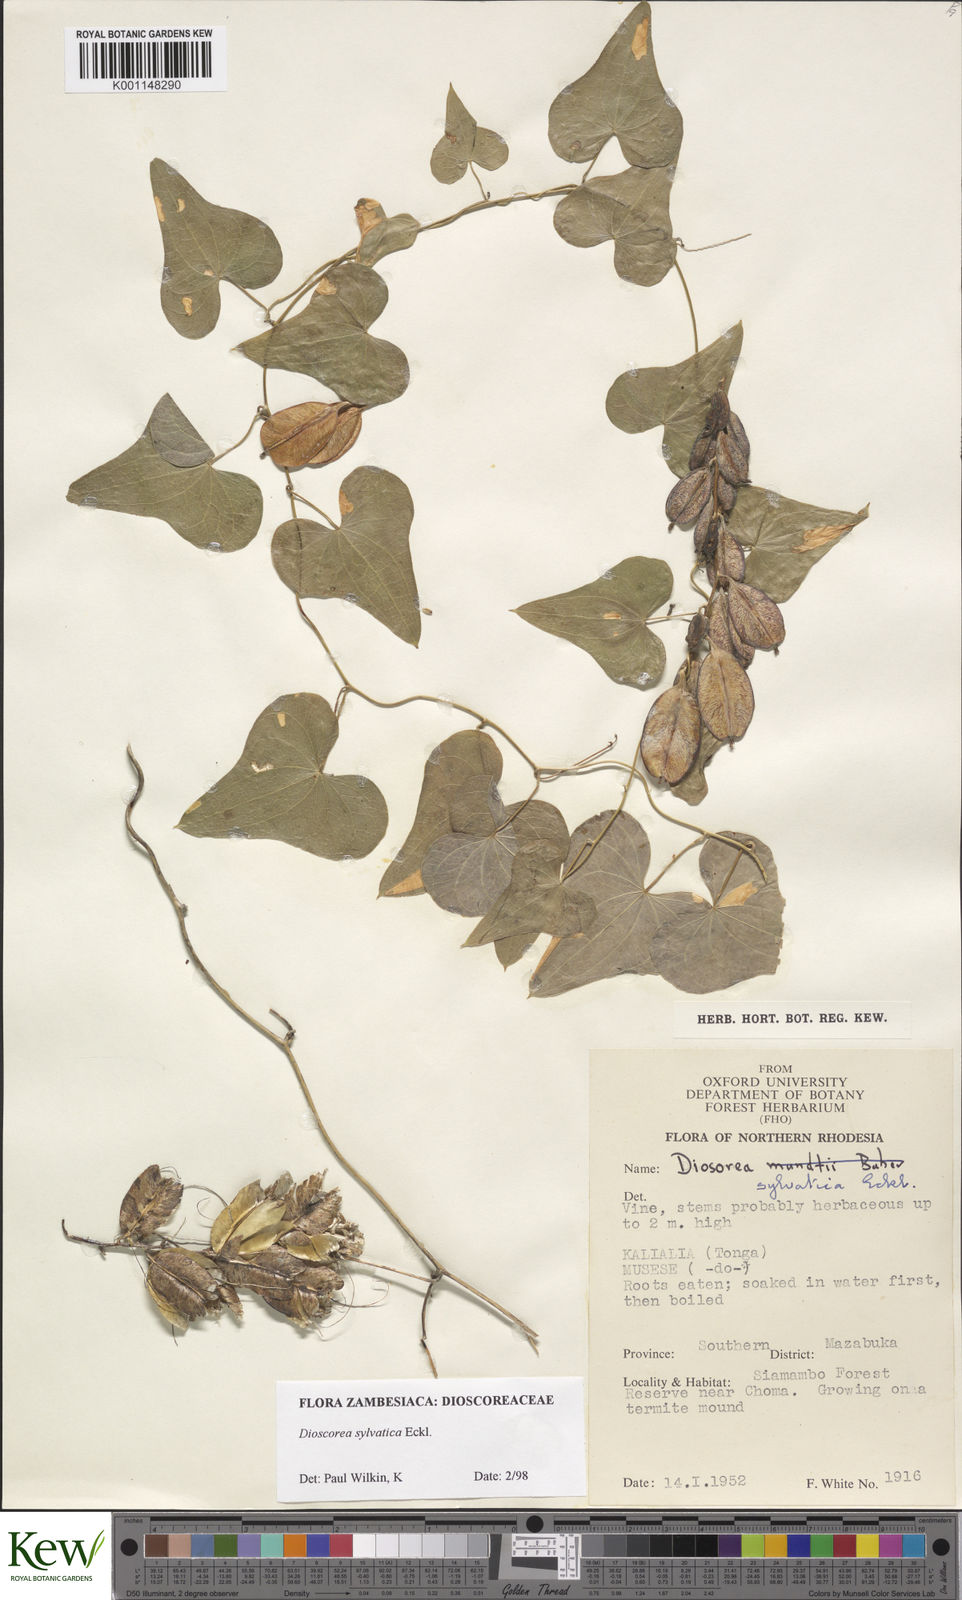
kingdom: Plantae
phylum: Tracheophyta
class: Liliopsida
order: Dioscoreales
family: Dioscoreaceae
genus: Dioscorea
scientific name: Dioscorea sylvatica
